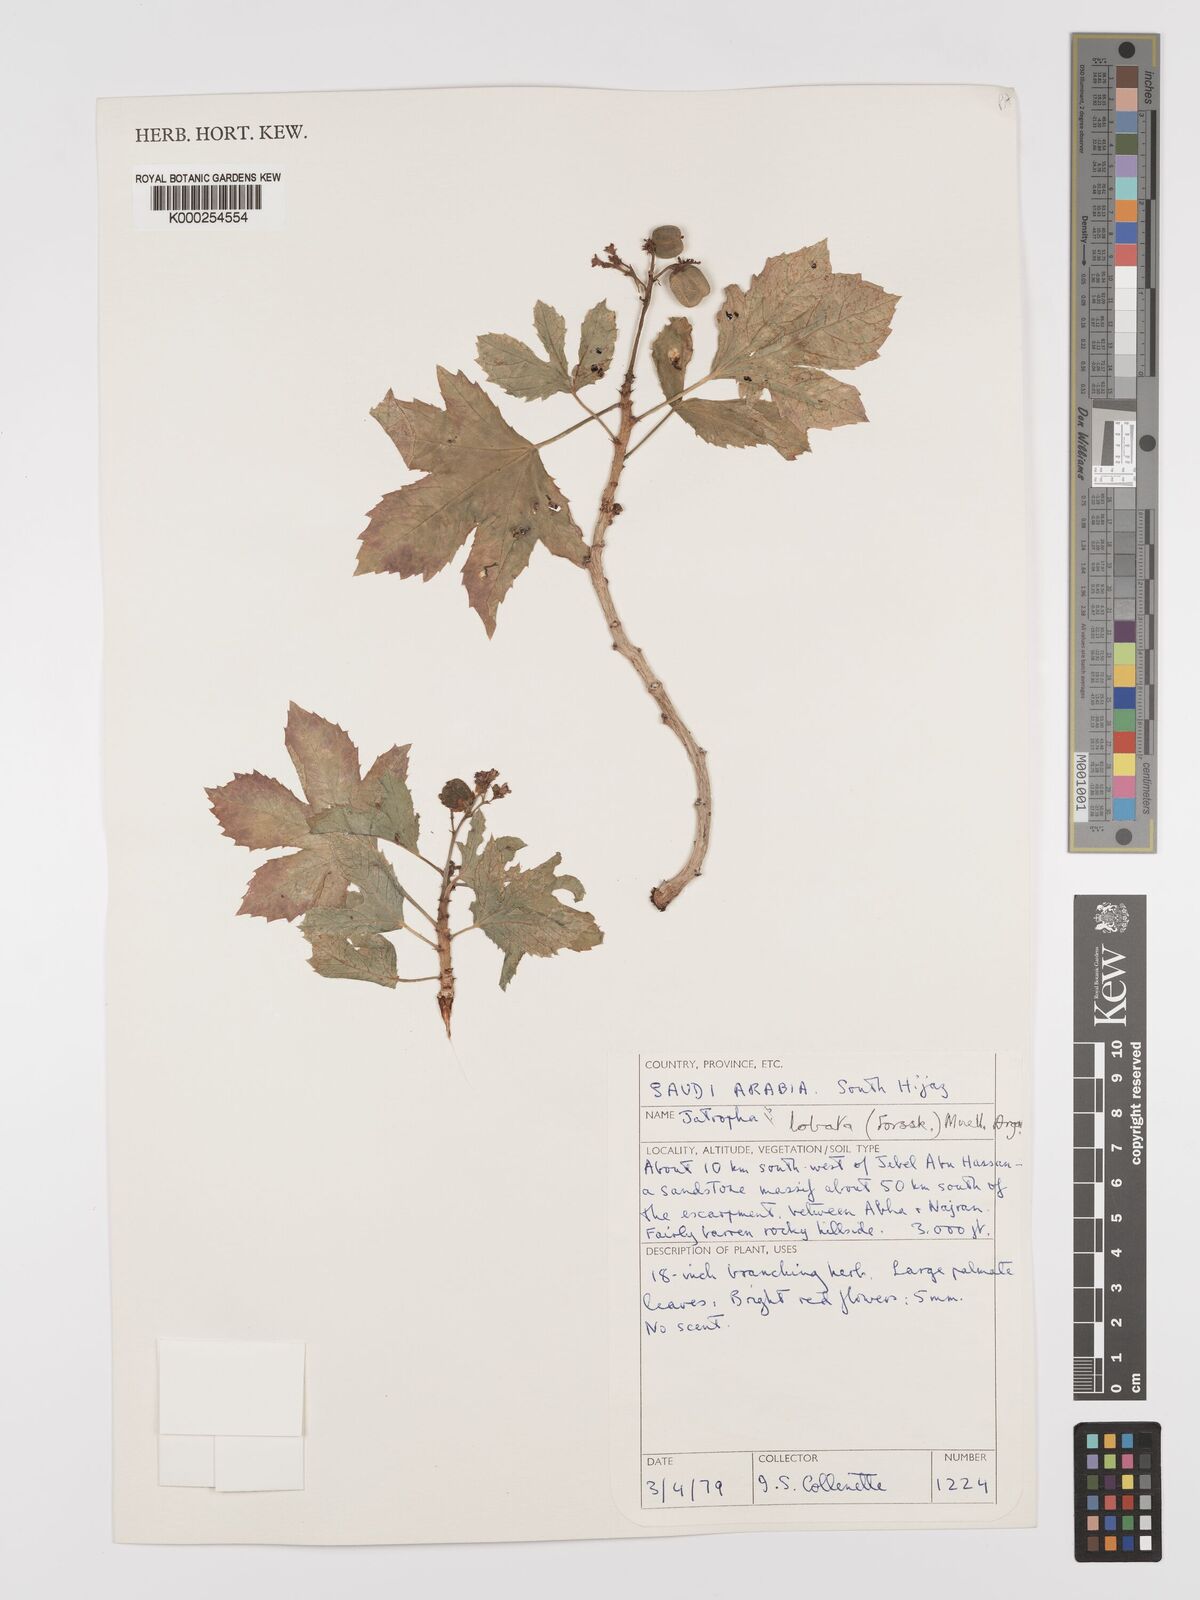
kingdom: Plantae
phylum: Tracheophyta
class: Magnoliopsida
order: Malpighiales
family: Euphorbiaceae
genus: Jatropha
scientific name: Jatropha glauca
